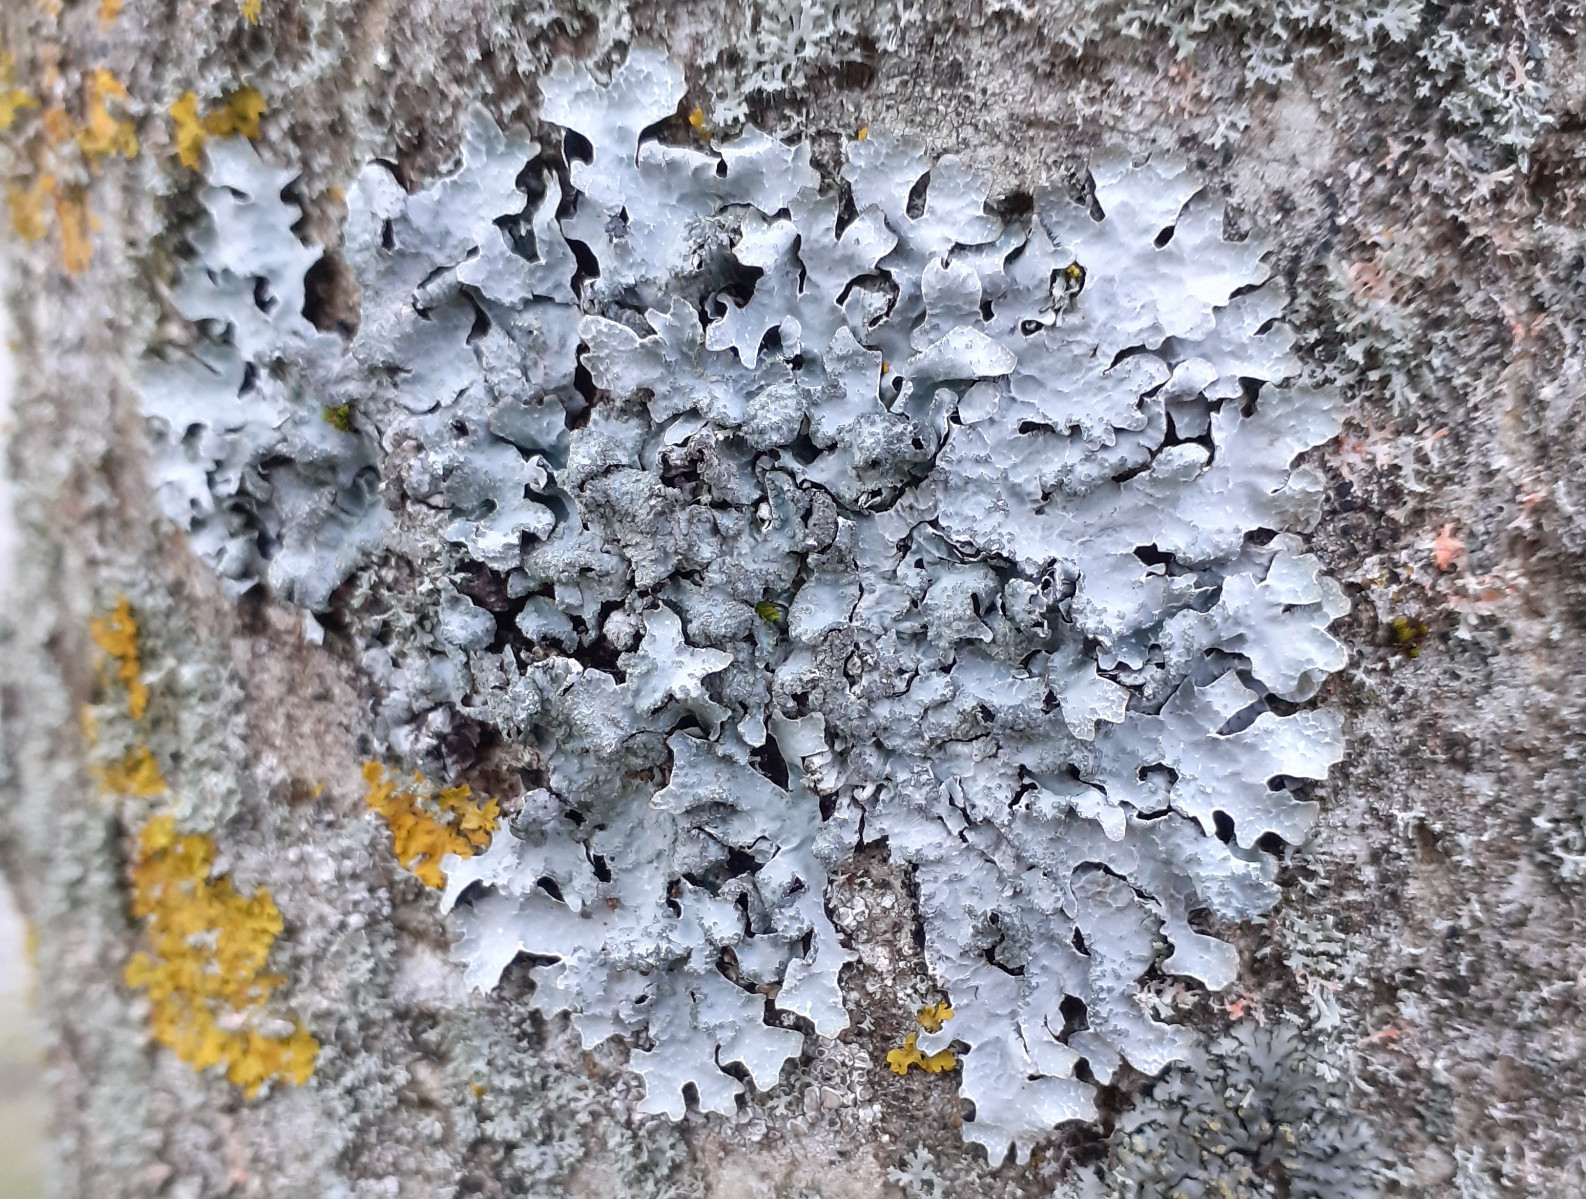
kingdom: Fungi
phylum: Ascomycota
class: Lecanoromycetes
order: Lecanorales
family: Parmeliaceae
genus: Parmelia
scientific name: Parmelia sulcata
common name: rynket skållav
